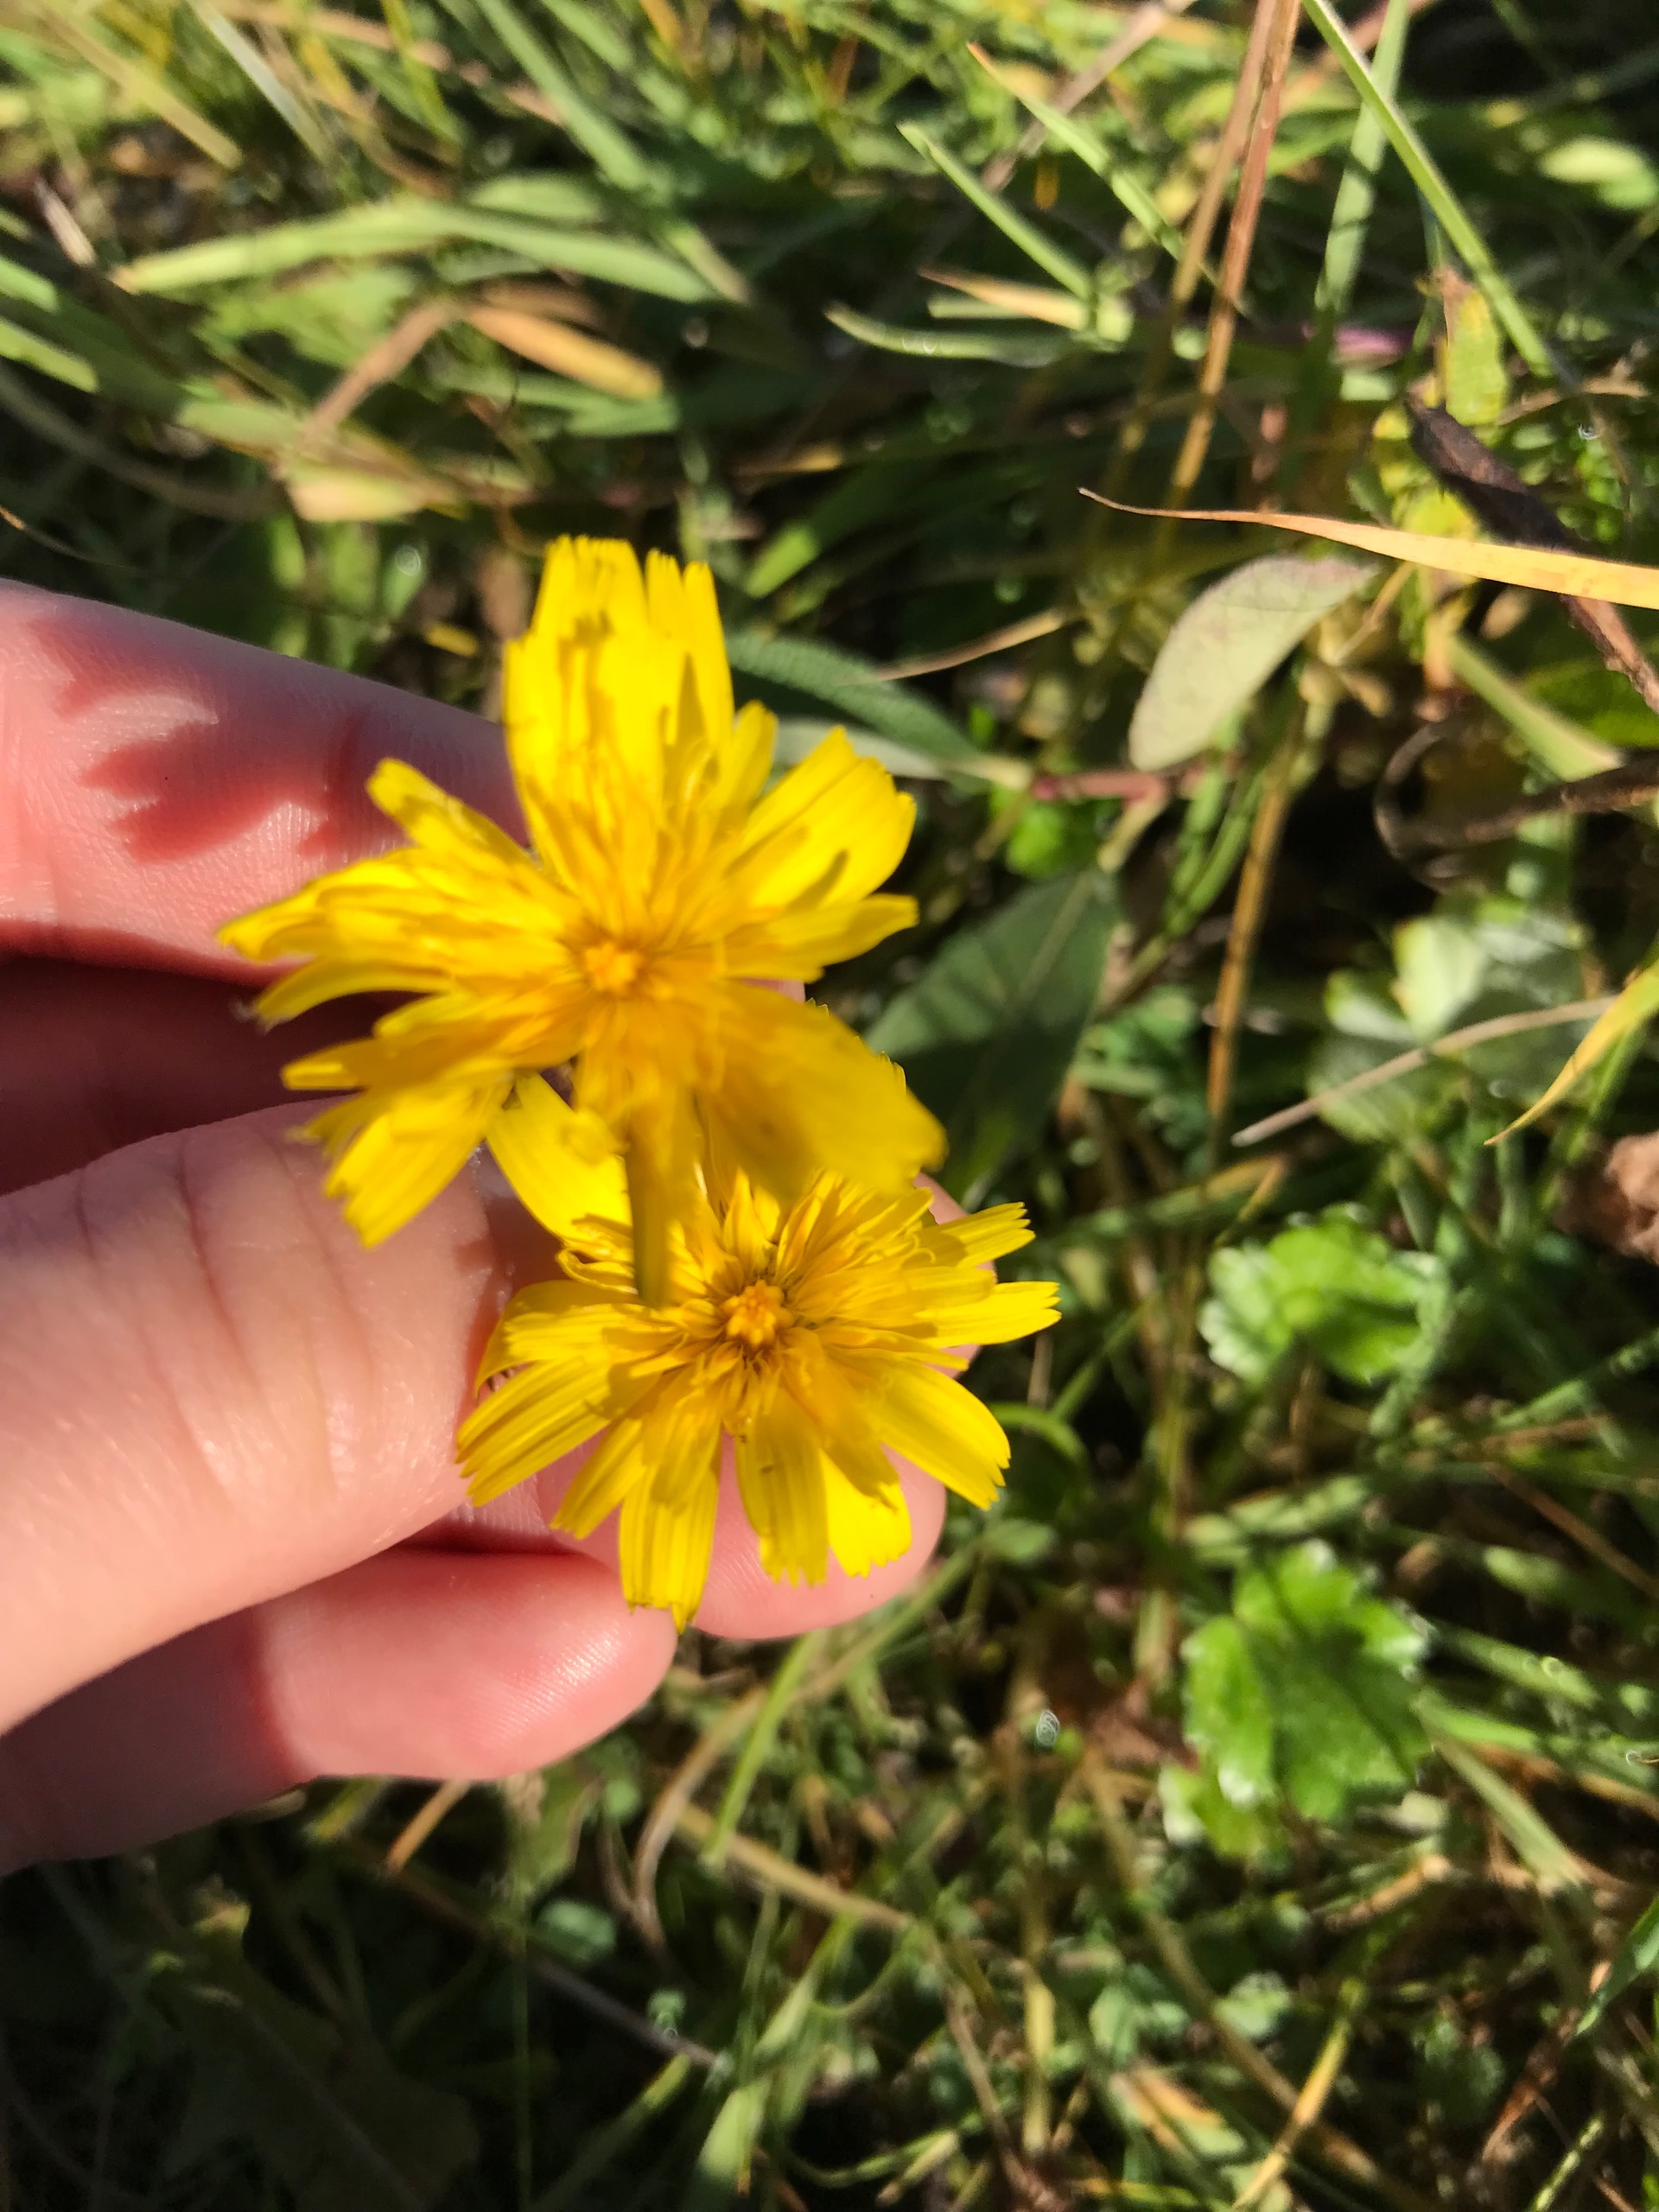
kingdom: Plantae
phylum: Tracheophyta
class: Magnoliopsida
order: Asterales
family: Asteraceae
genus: Thrincia
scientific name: Thrincia saxatilis
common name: Hundesalat
